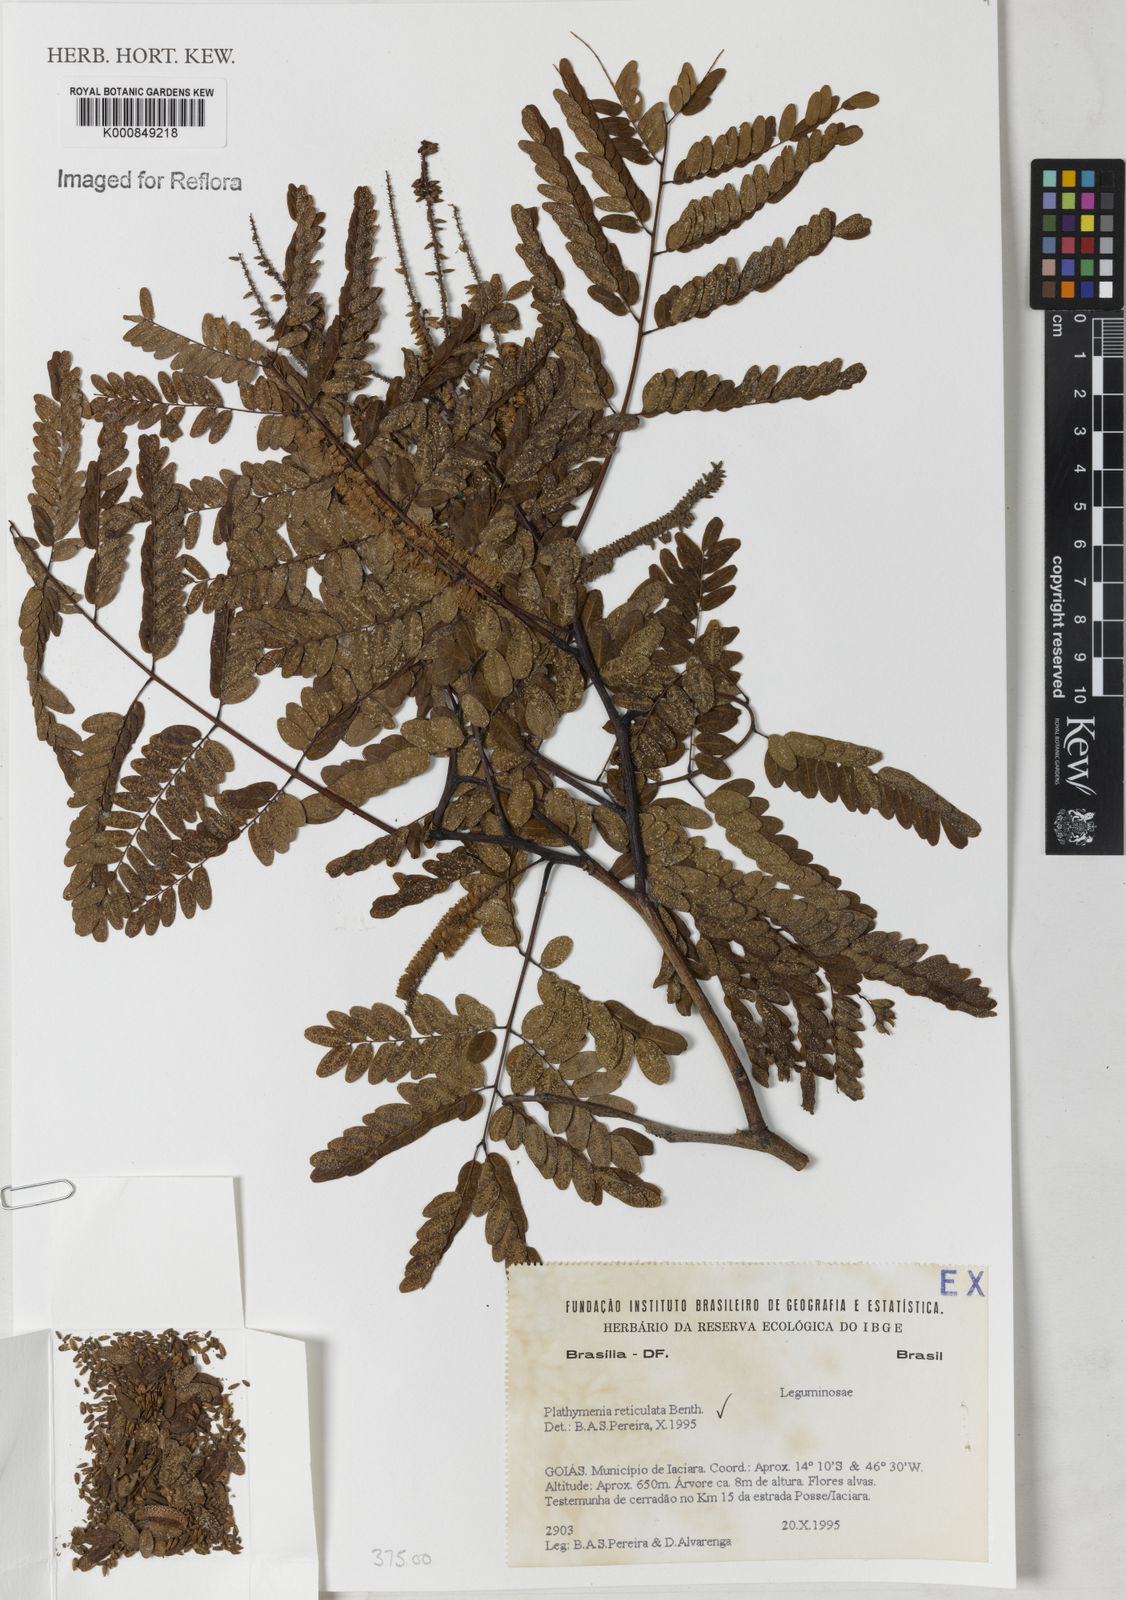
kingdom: Plantae
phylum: Tracheophyta
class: Magnoliopsida
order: Fabales
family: Fabaceae
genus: Plathymenia
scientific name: Plathymenia reticulata
